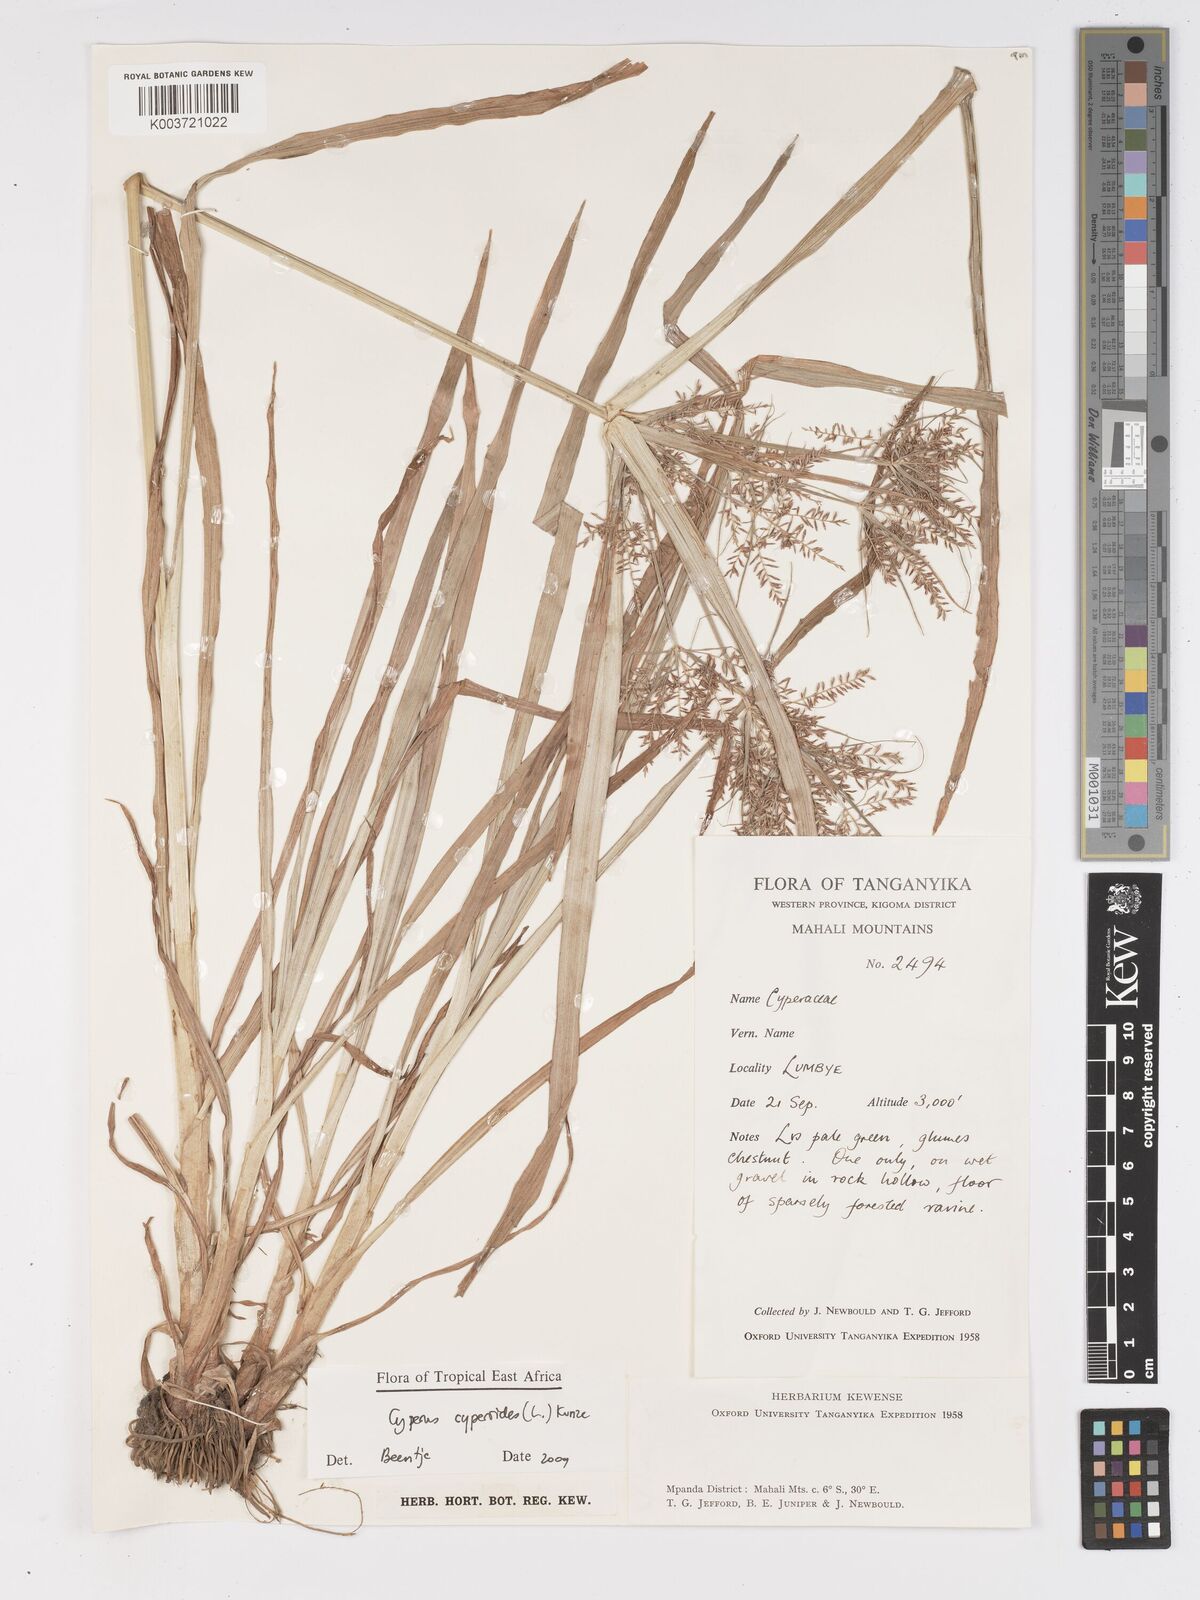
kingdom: Plantae
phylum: Tracheophyta
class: Liliopsida
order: Poales
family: Cyperaceae
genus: Cyperus
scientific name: Cyperus cyperoides
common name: Pacific island flat sedge
